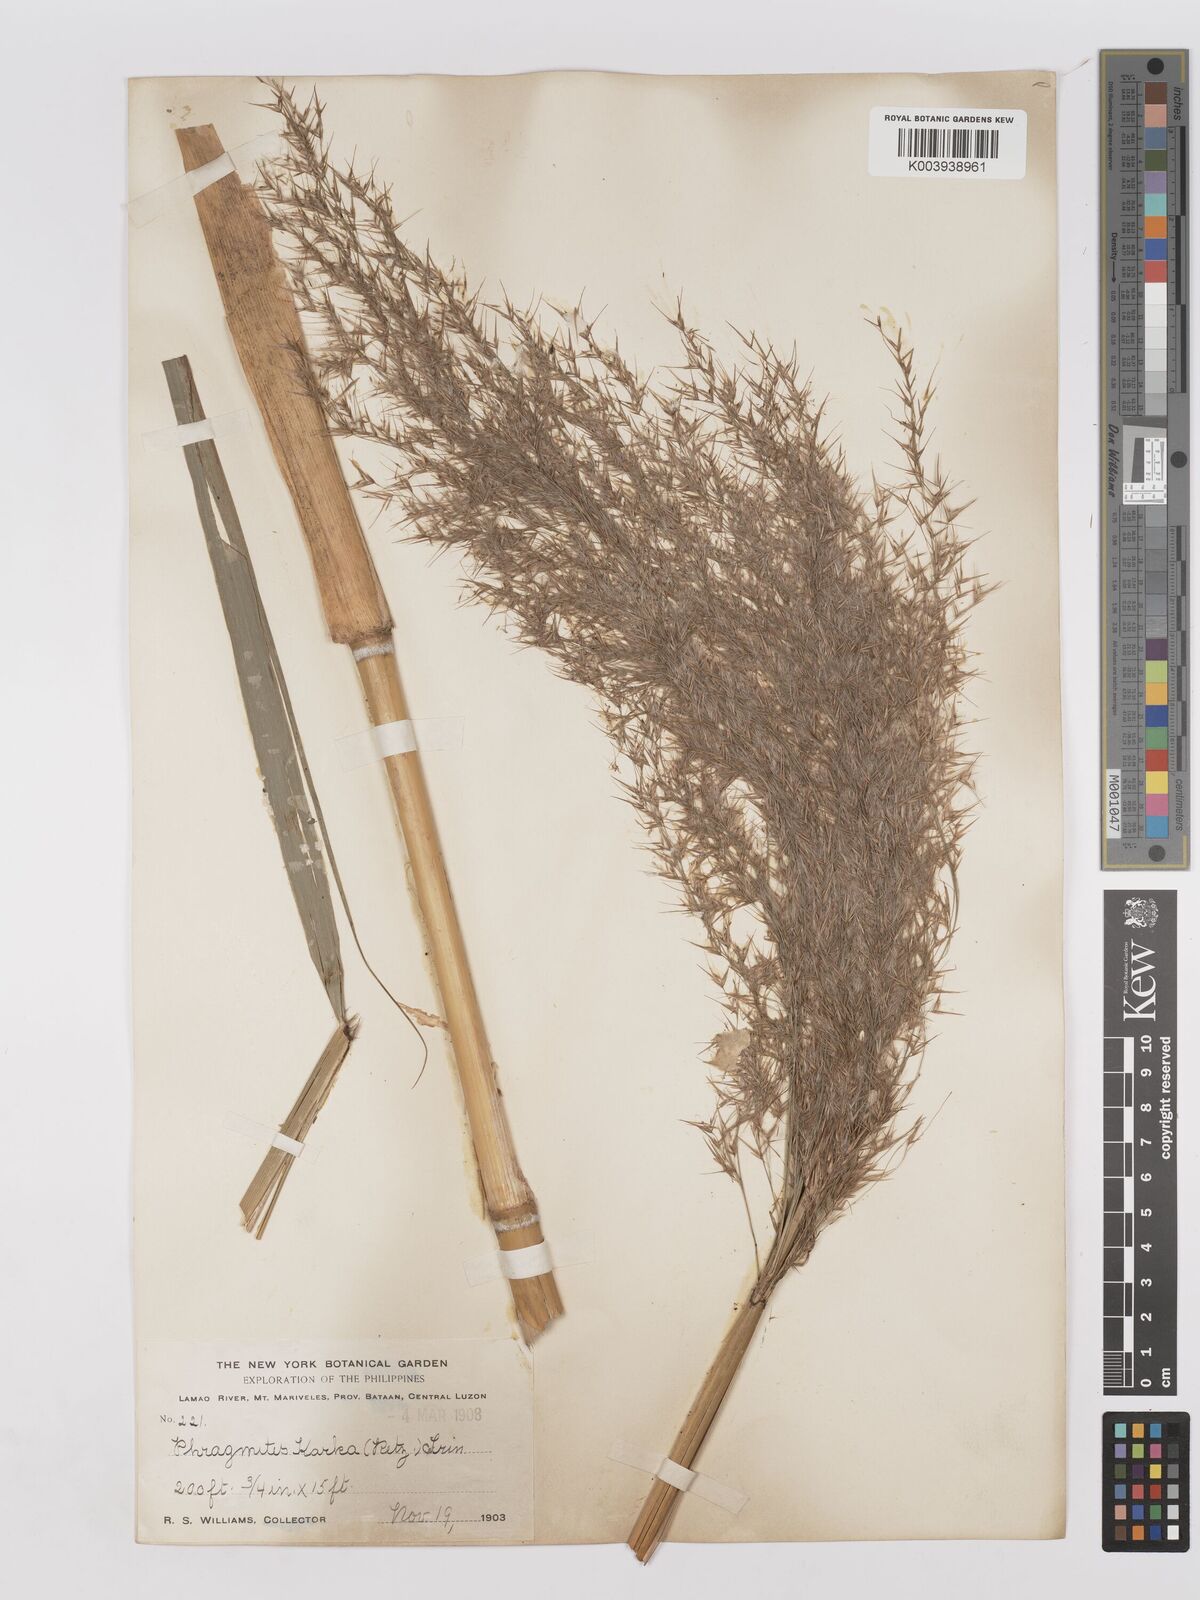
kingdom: Plantae
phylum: Tracheophyta
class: Liliopsida
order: Poales
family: Poaceae
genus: Phragmites
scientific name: Phragmites karka
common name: Tropical reed
